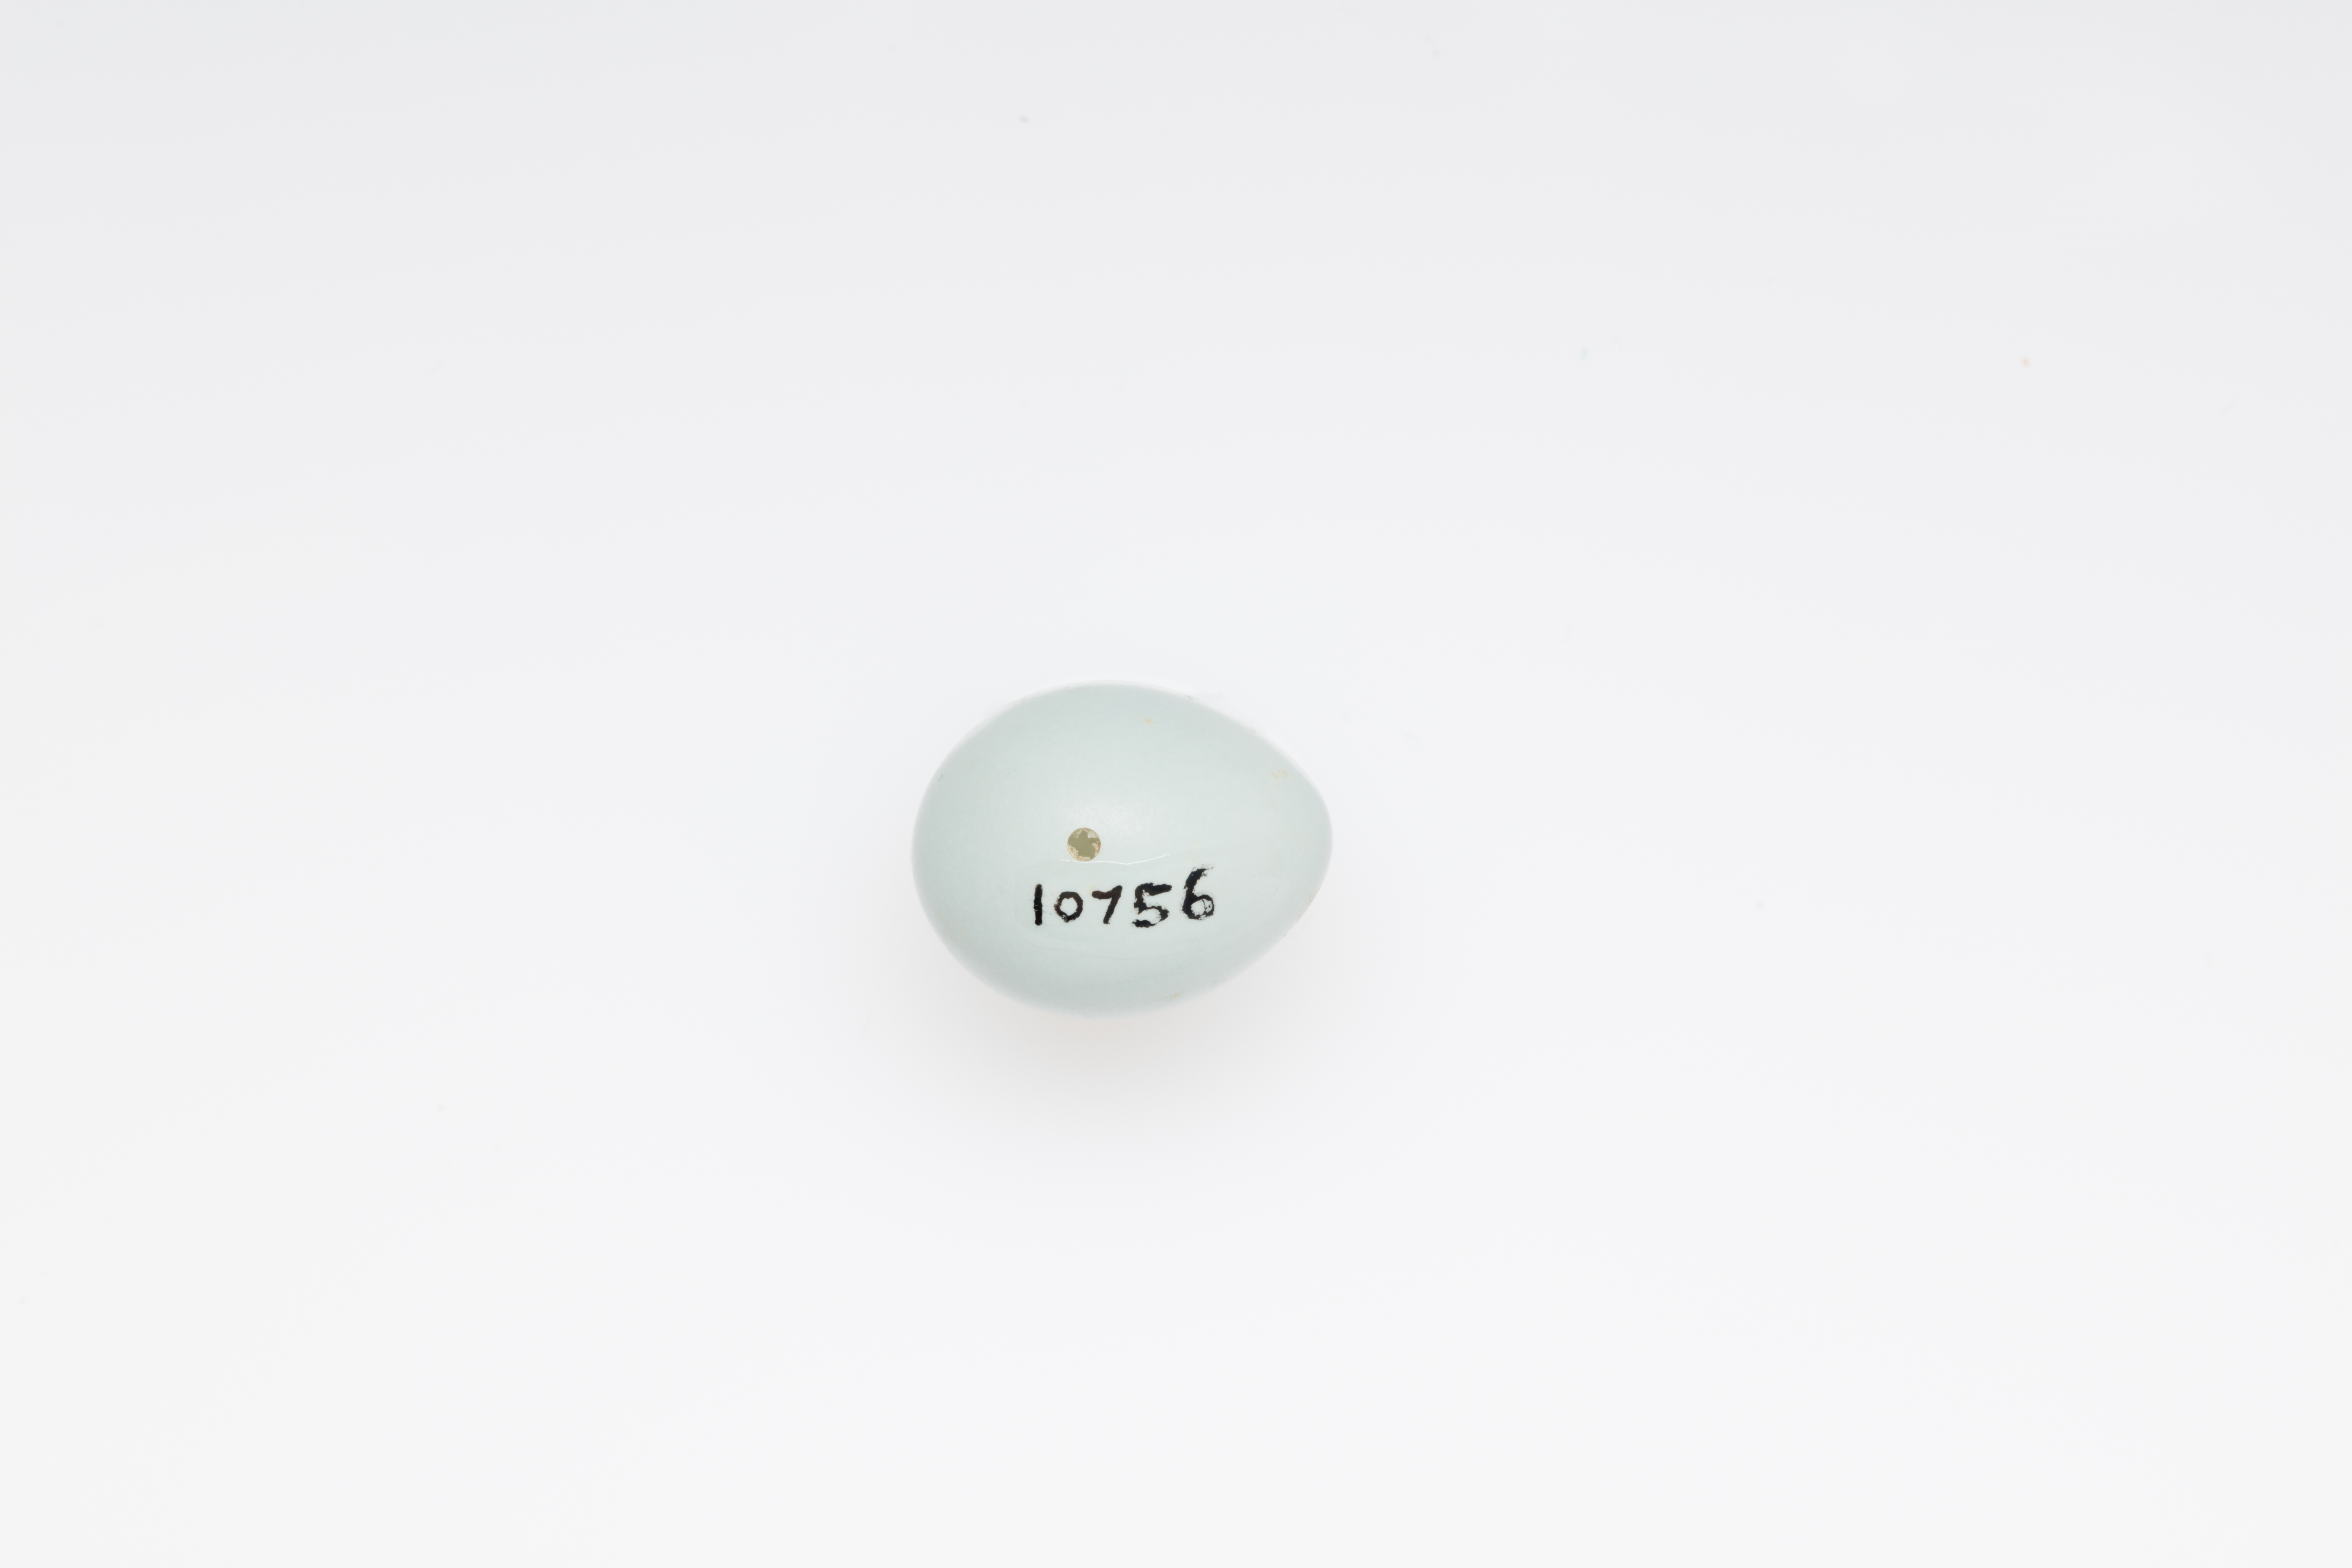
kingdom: Animalia
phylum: Chordata
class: Aves
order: Passeriformes
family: Prunellidae
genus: Prunella
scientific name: Prunella modularis
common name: Dunnock
